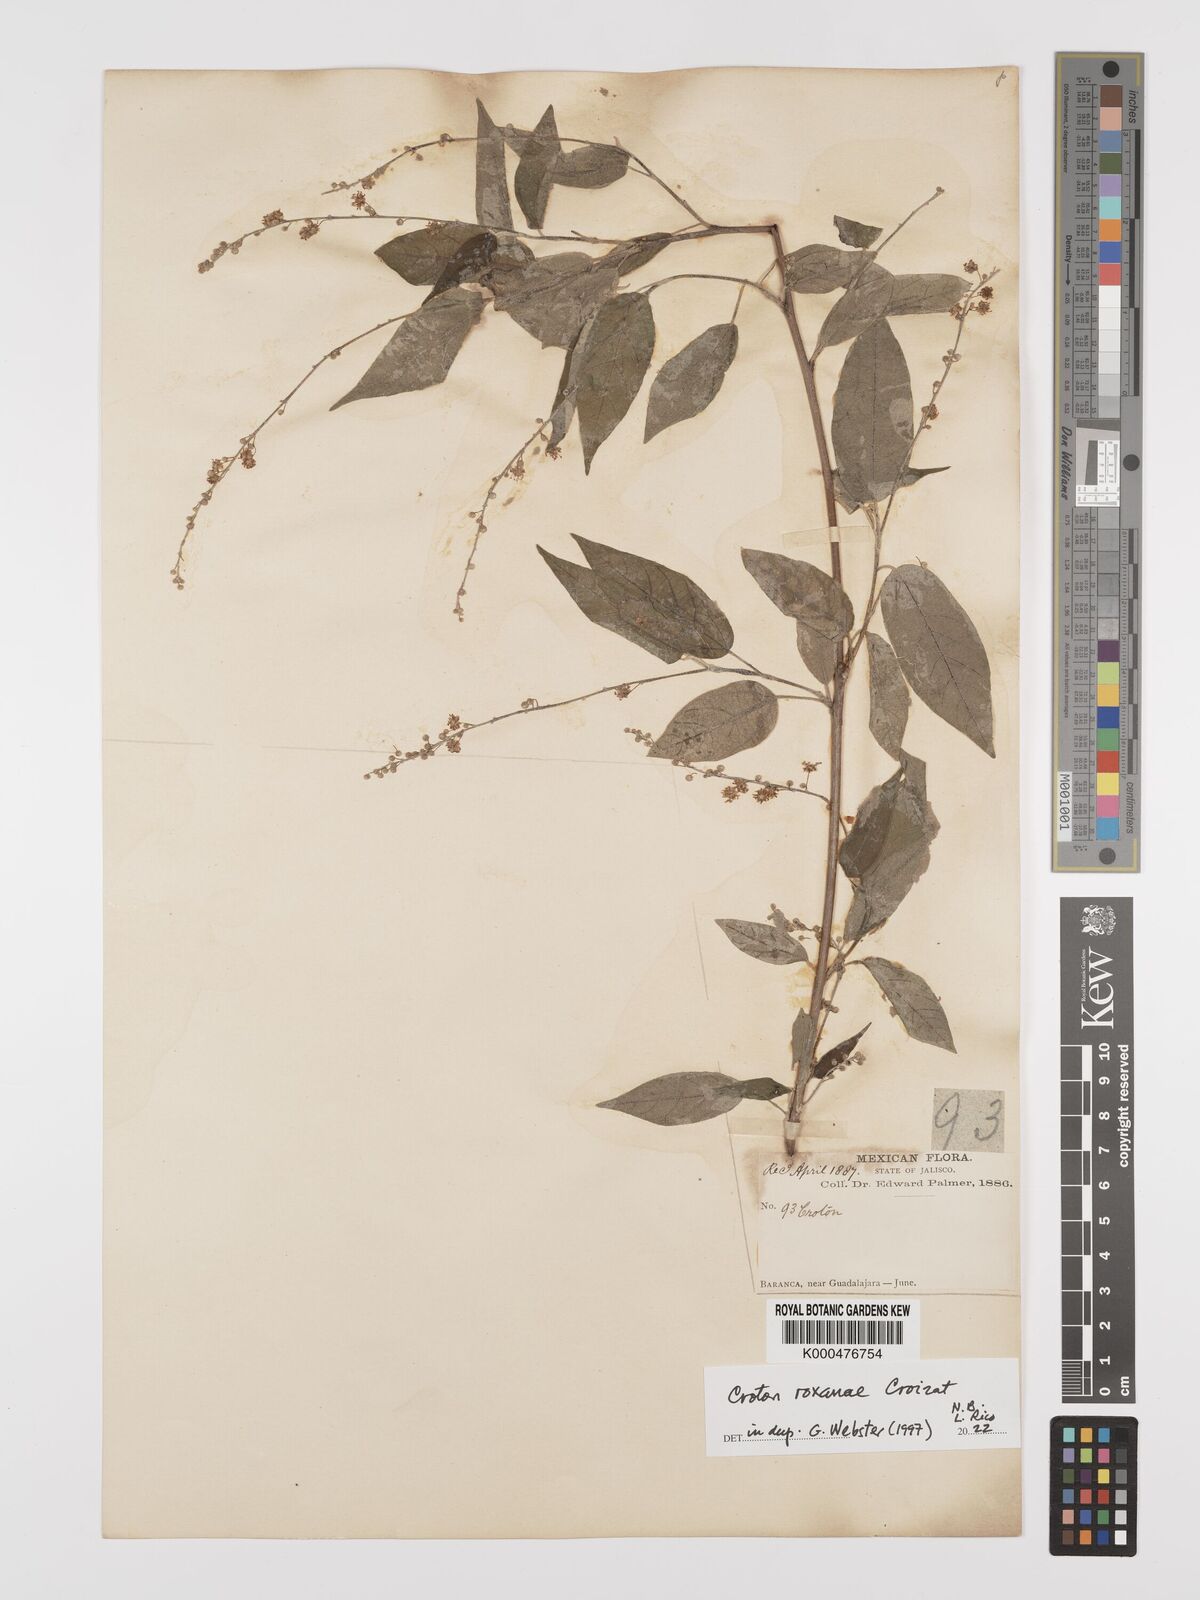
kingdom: Plantae
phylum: Tracheophyta
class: Magnoliopsida
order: Malpighiales
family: Euphorbiaceae
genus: Croton
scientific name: Croton roxanae
